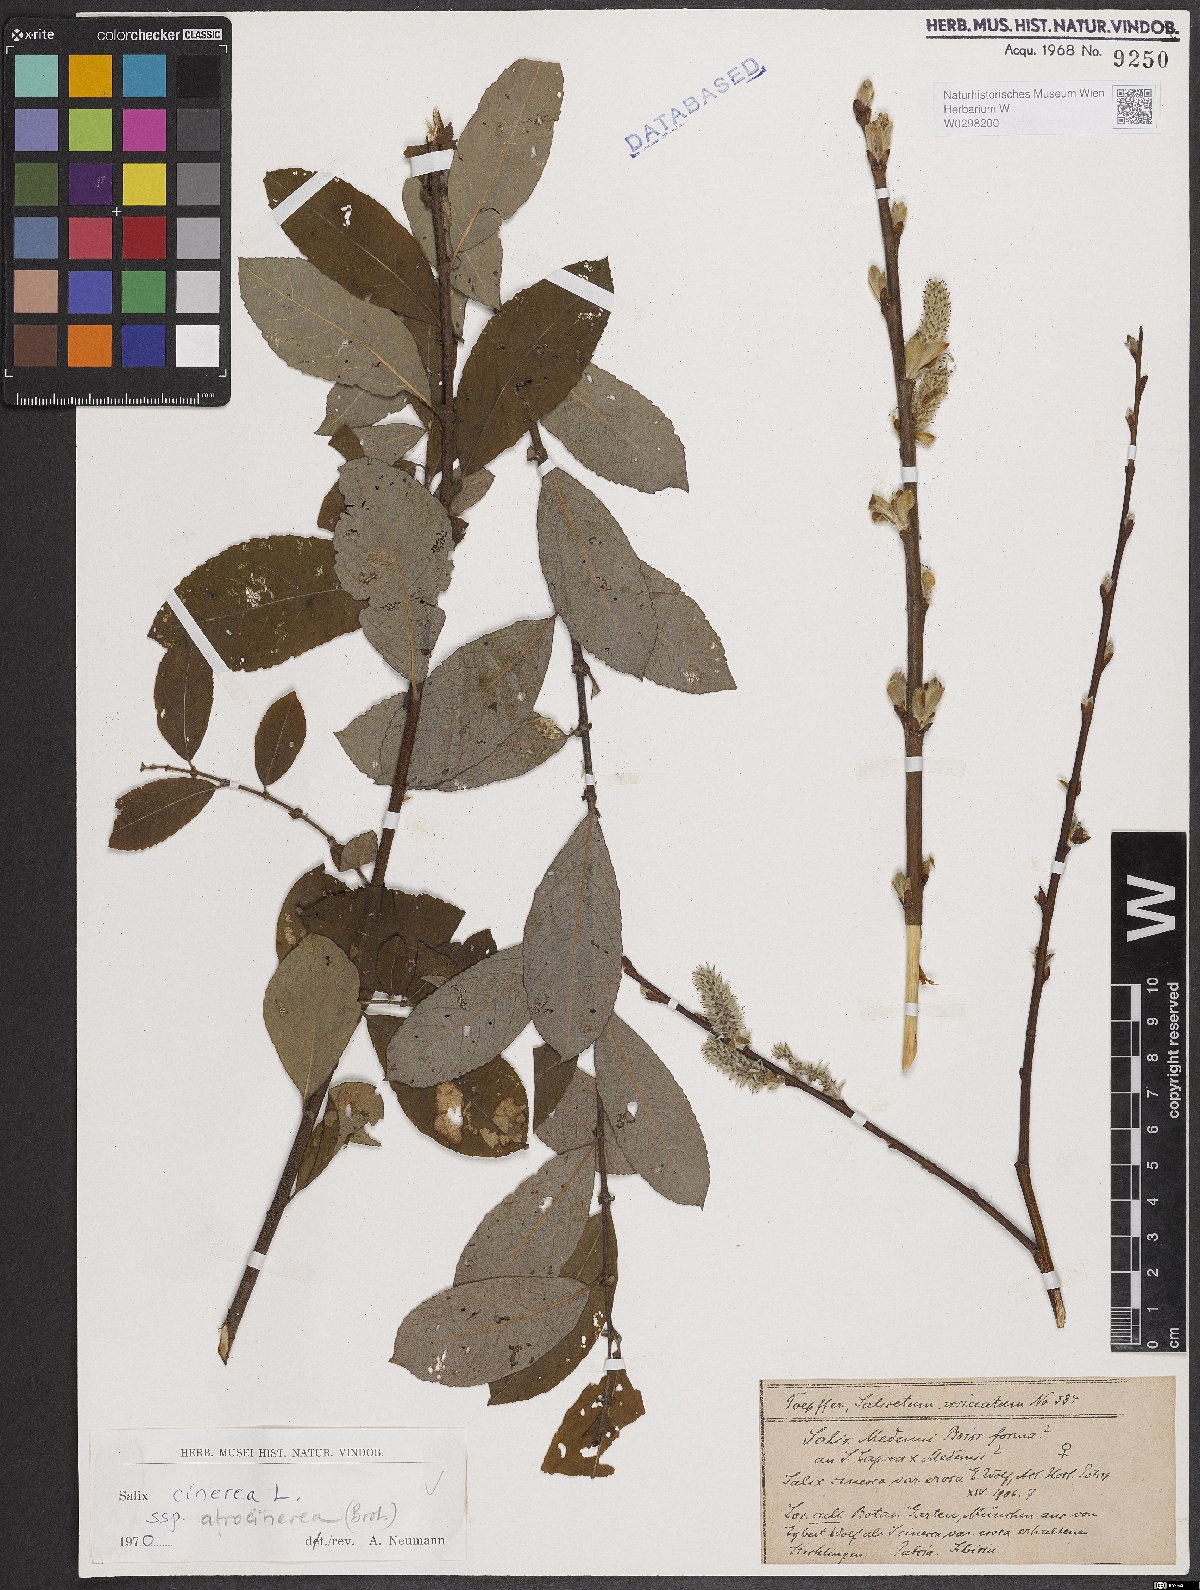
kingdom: Plantae
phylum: Tracheophyta
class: Magnoliopsida
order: Malpighiales
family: Salicaceae
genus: Salix
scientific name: Salix atrocinerea
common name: Rusty willow
